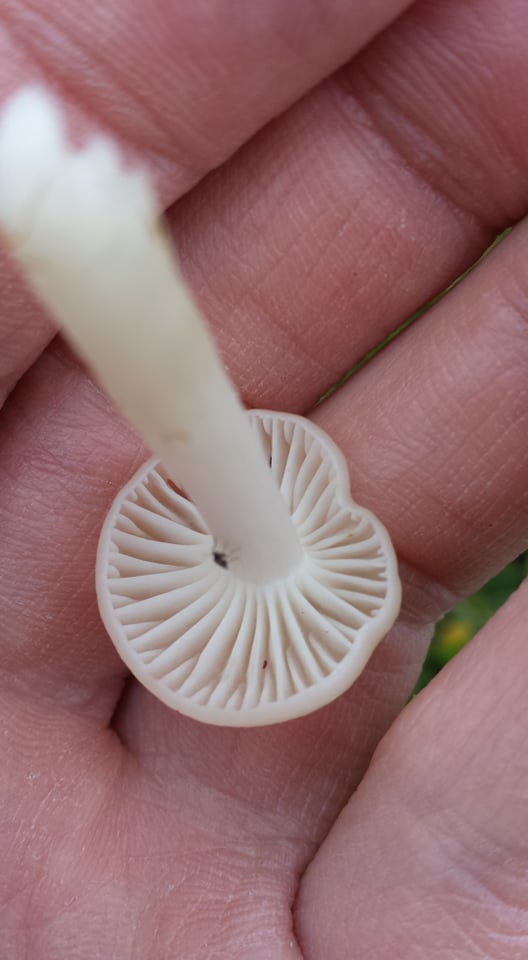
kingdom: Fungi
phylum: Basidiomycota
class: Agaricomycetes
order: Agaricales
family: Hygrophoraceae
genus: Cuphophyllus
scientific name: Cuphophyllus virgineus
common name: snehvid vokshat
